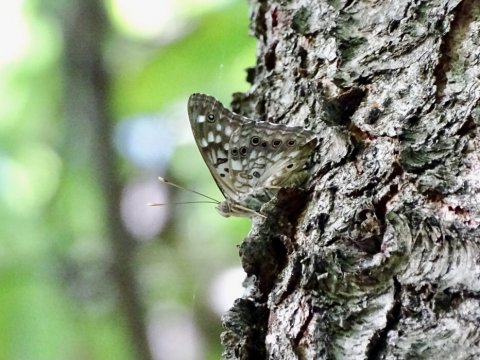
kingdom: Animalia
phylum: Arthropoda
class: Insecta
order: Lepidoptera
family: Nymphalidae
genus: Asterocampa
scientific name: Asterocampa celtis
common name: Hackberry Emperor
